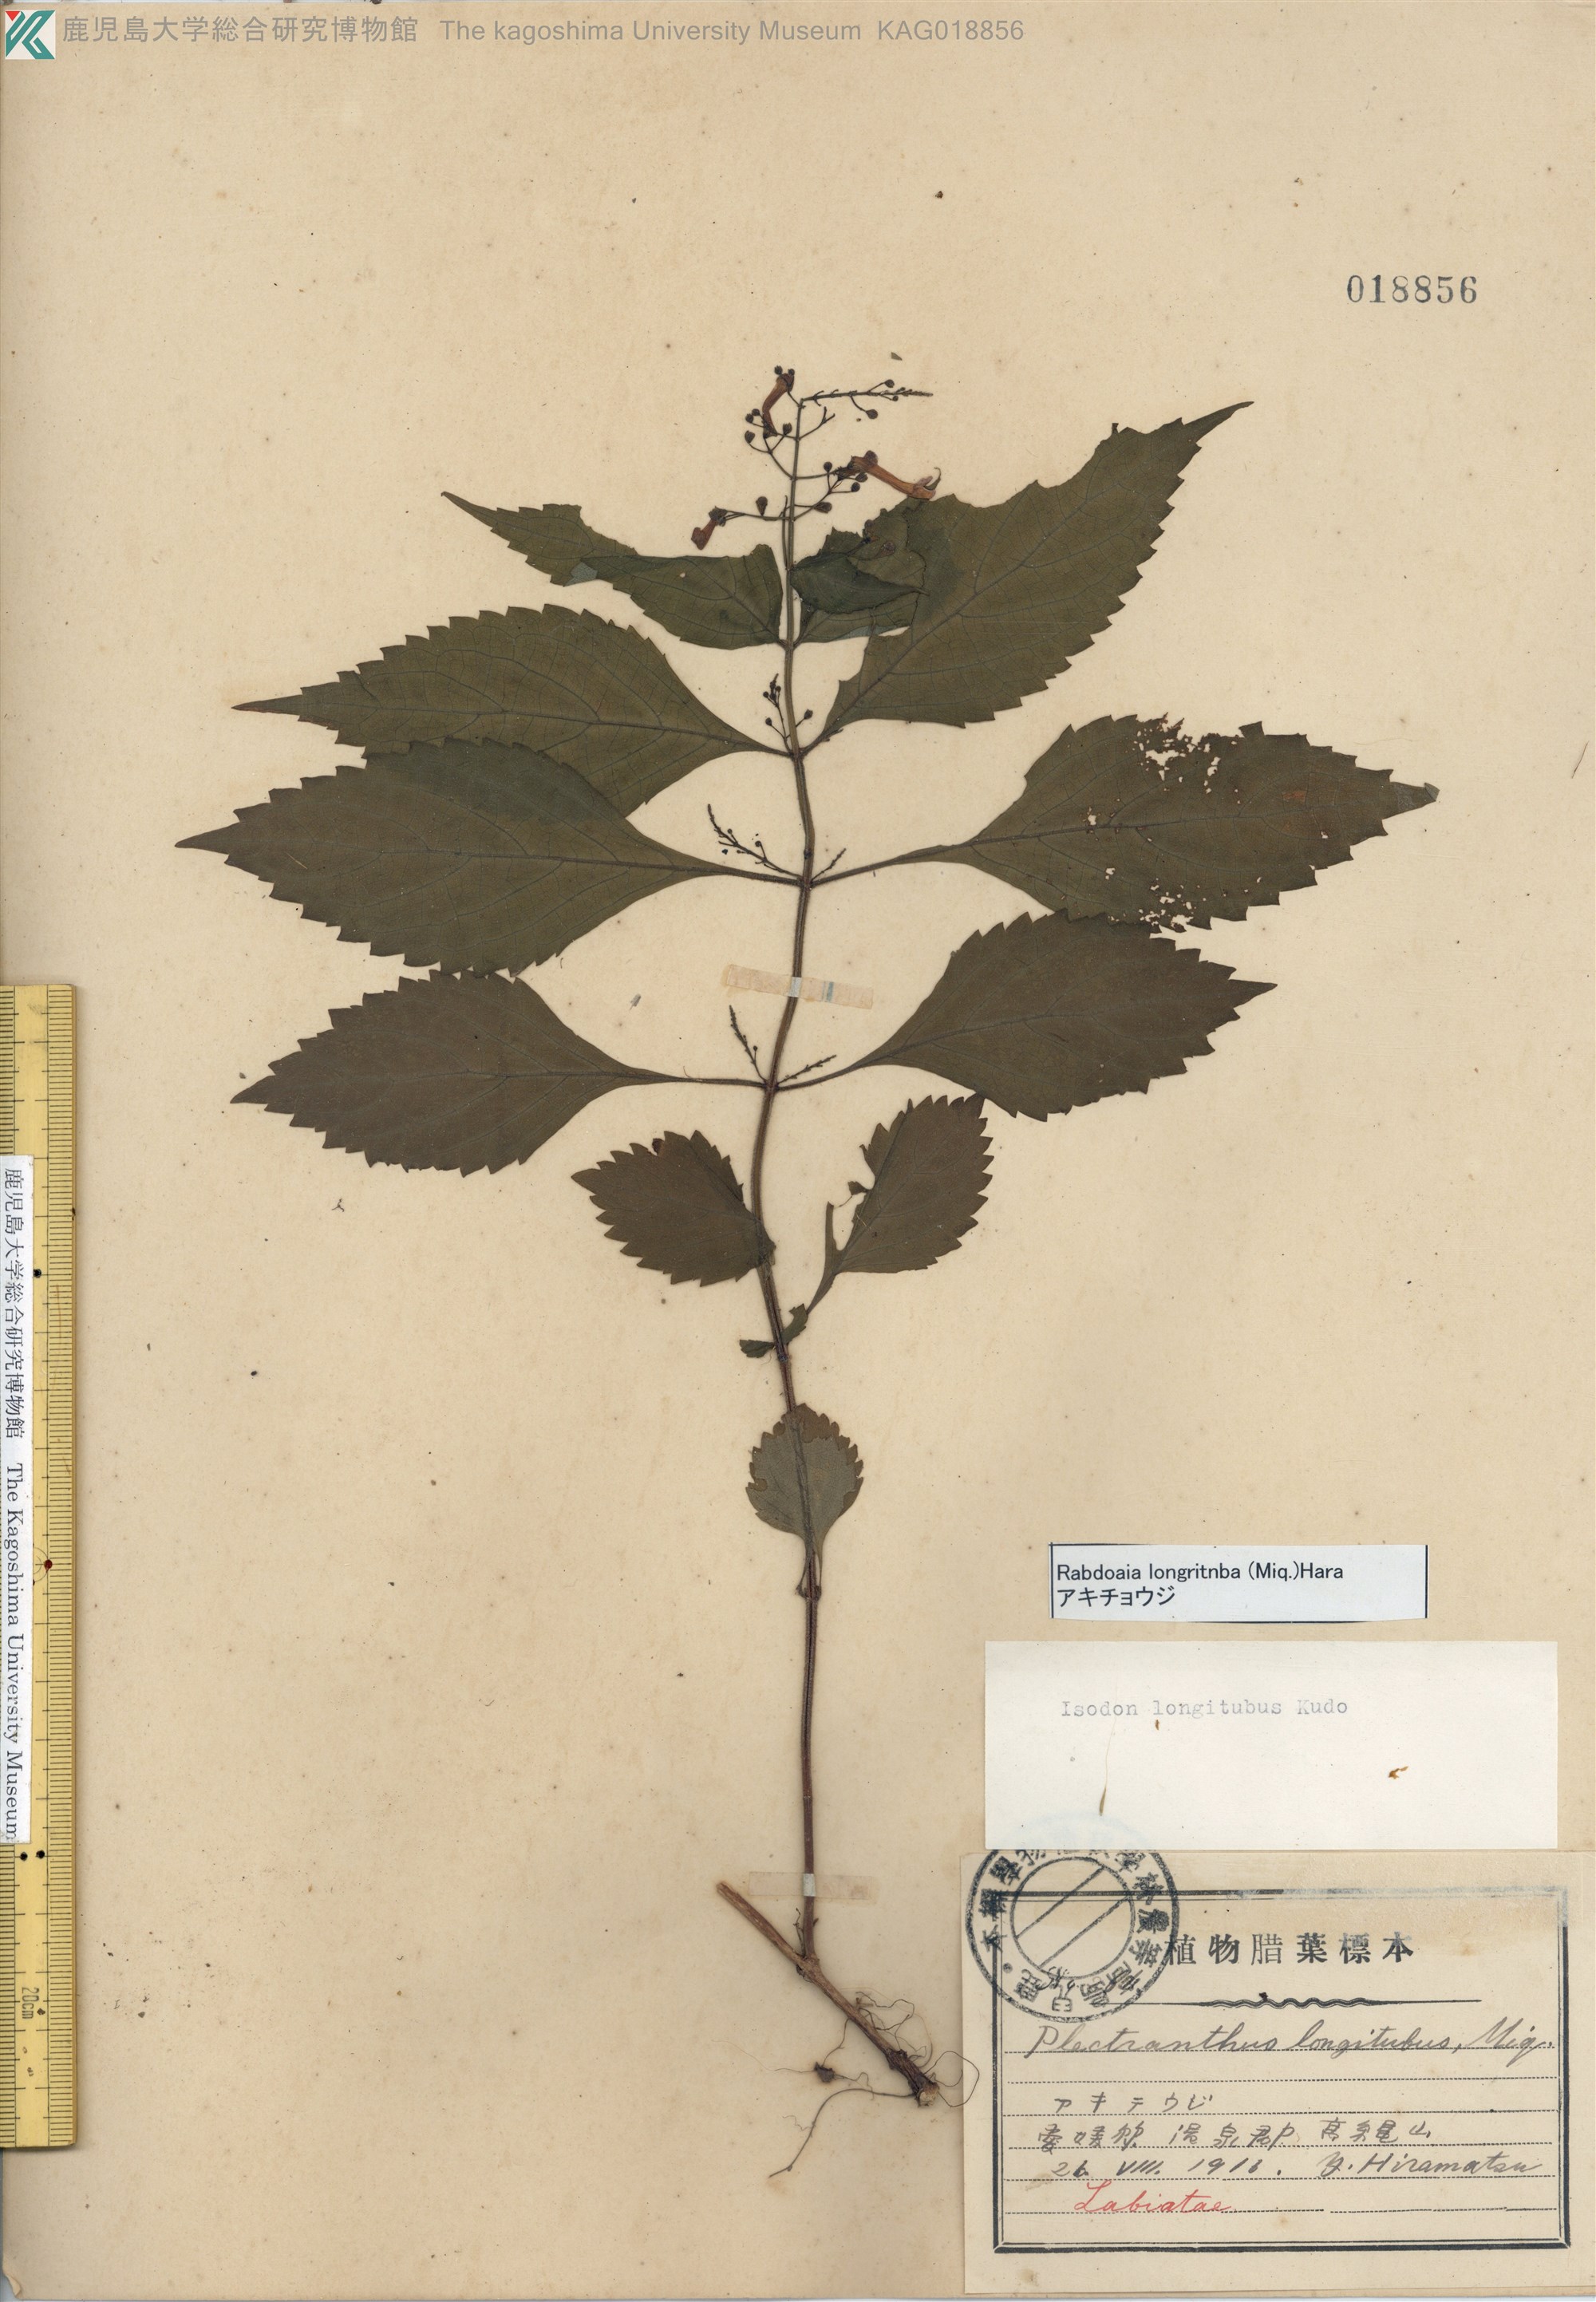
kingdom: Plantae
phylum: Tracheophyta
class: Magnoliopsida
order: Lamiales
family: Lamiaceae
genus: Isodon
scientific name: Isodon longitubus
